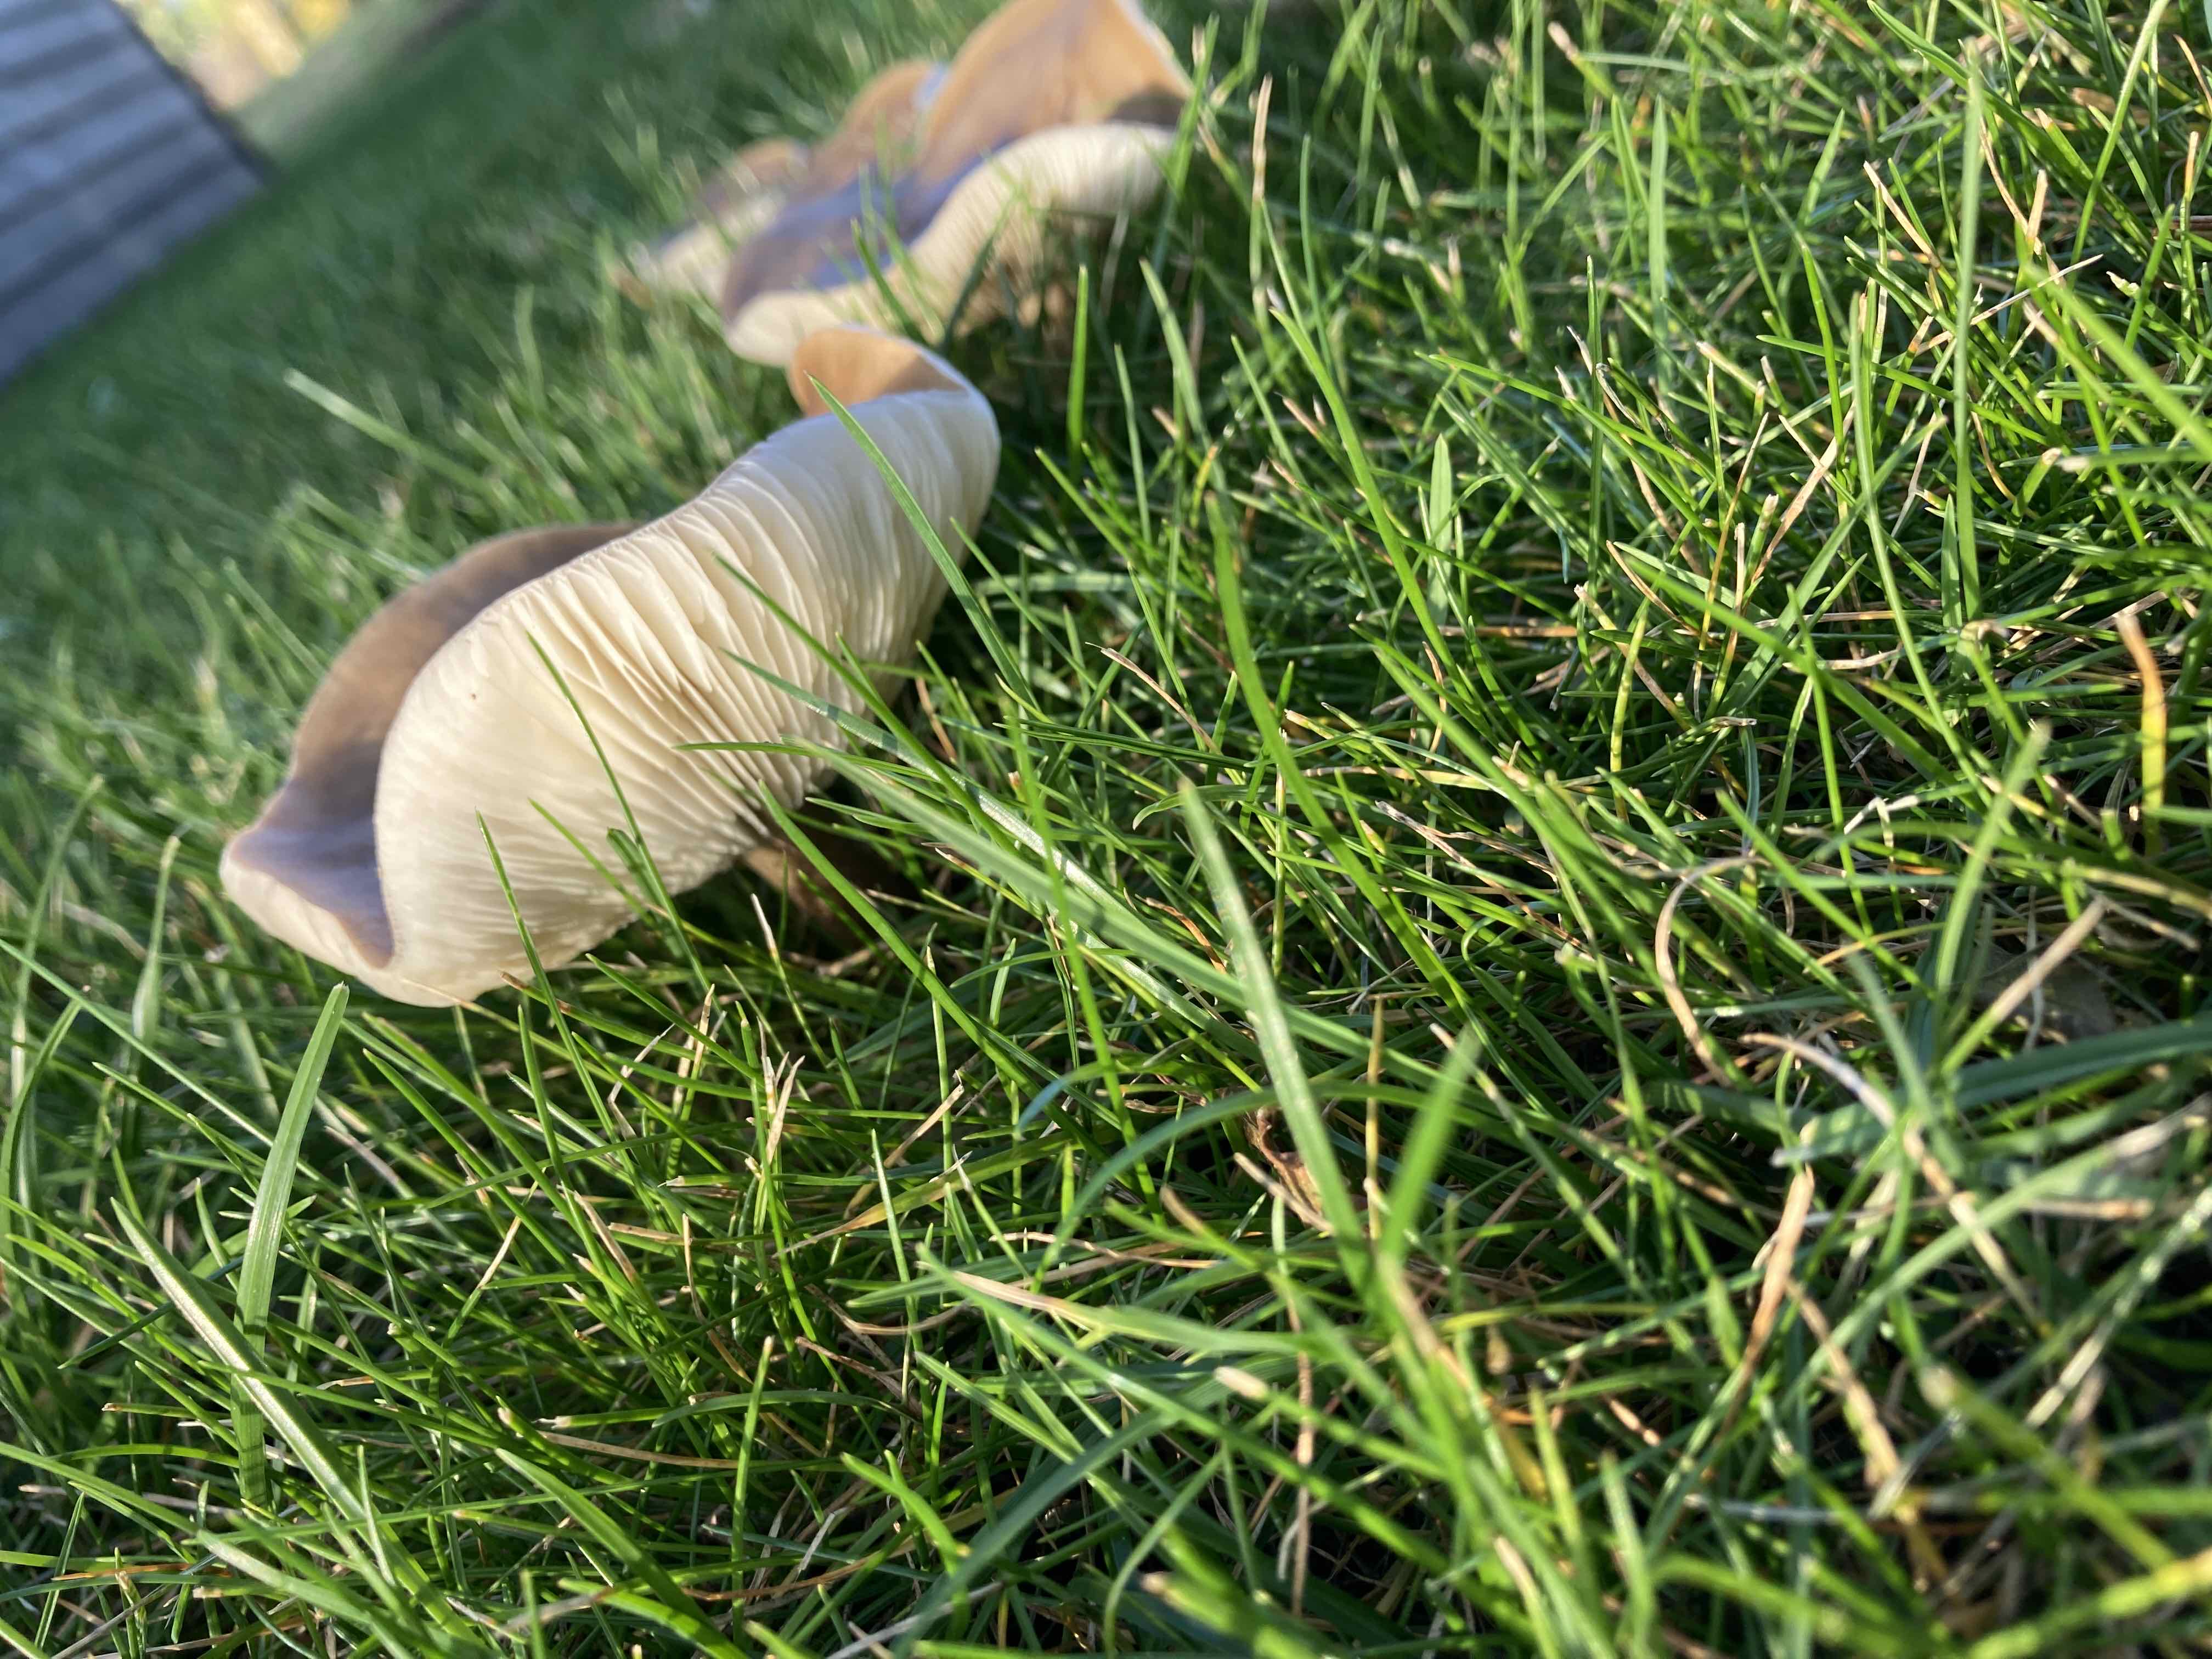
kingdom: Fungi
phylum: Basidiomycota
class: Agaricomycetes
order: Agaricales
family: Tricholomataceae
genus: Melanoleuca
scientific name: Melanoleuca
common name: munkehat
